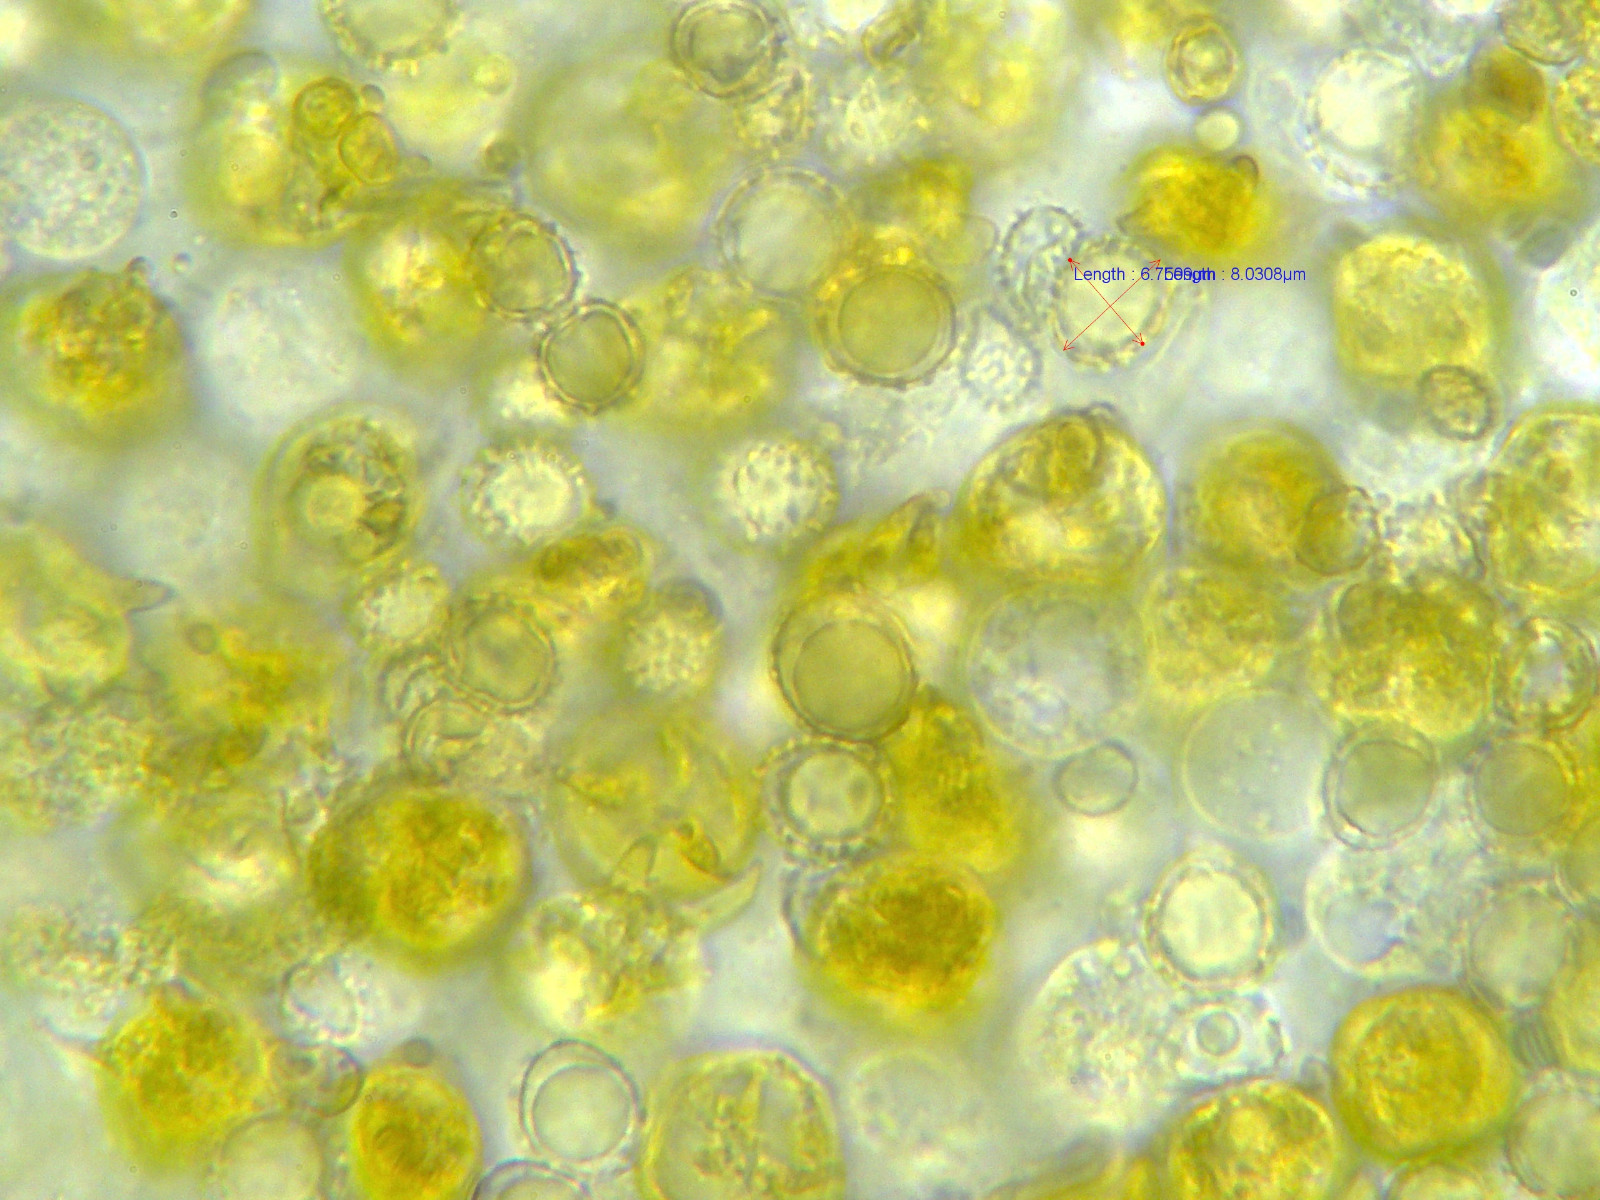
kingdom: Fungi
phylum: Basidiomycota
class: Agaricomycetes
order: Russulales
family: Russulaceae
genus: Russula
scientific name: Russula puellaris
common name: gulstokket skørhat
